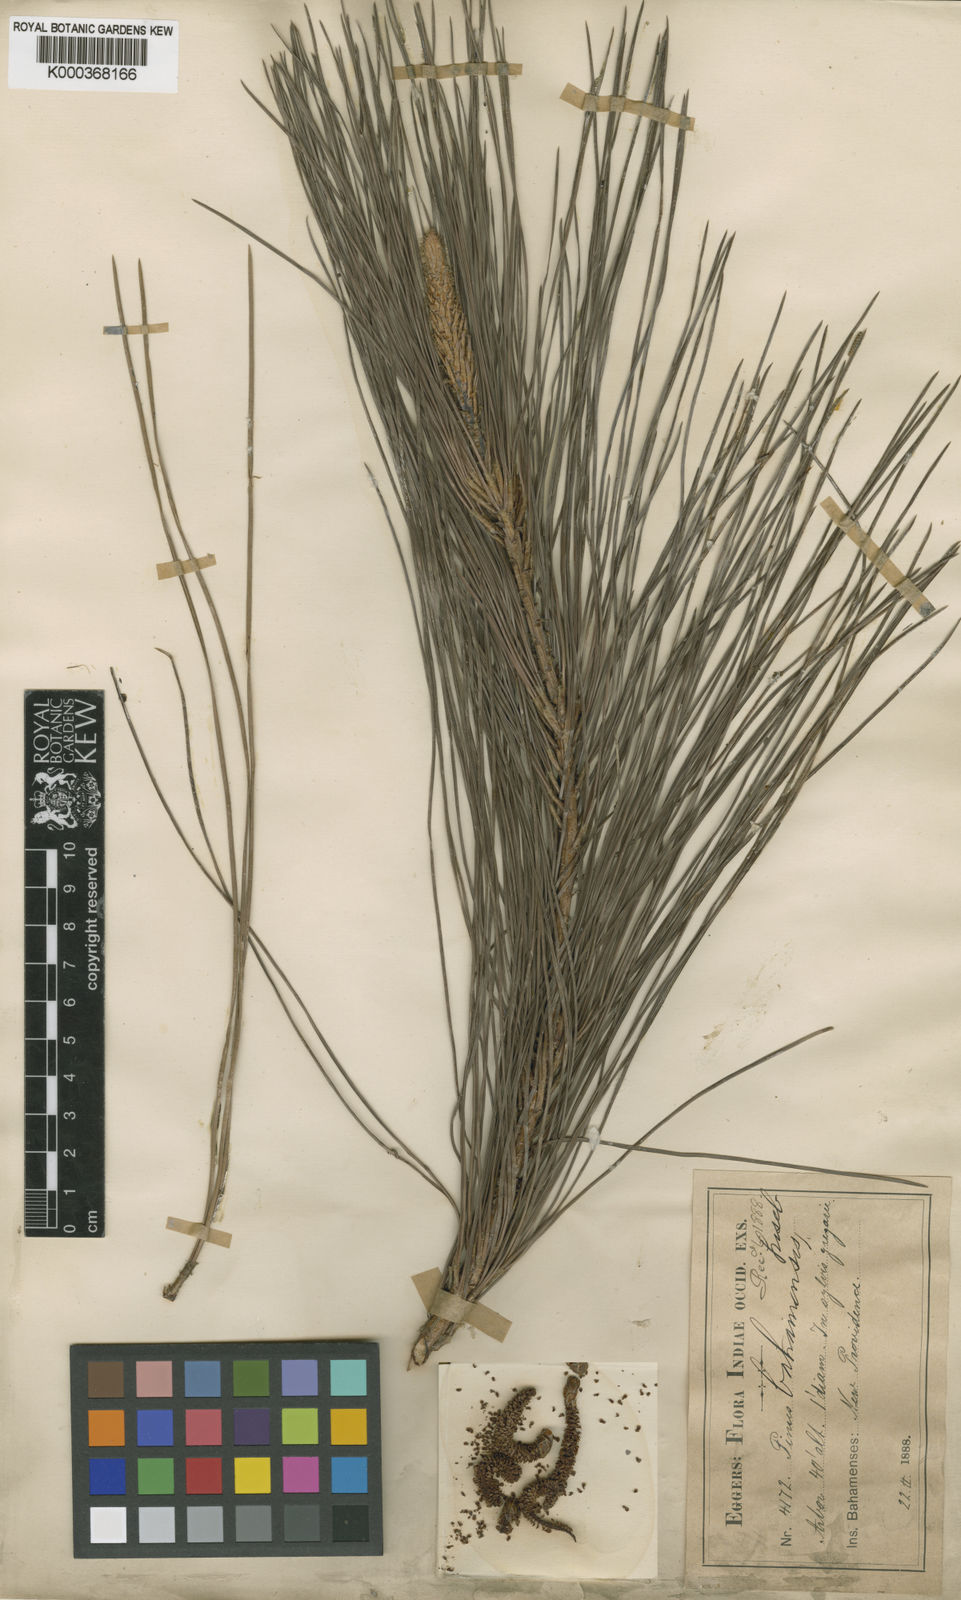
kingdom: Plantae
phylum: Tracheophyta
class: Pinopsida
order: Pinales
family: Pinaceae
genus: Pinus
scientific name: Pinus caribaea
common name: Caribbean pine
